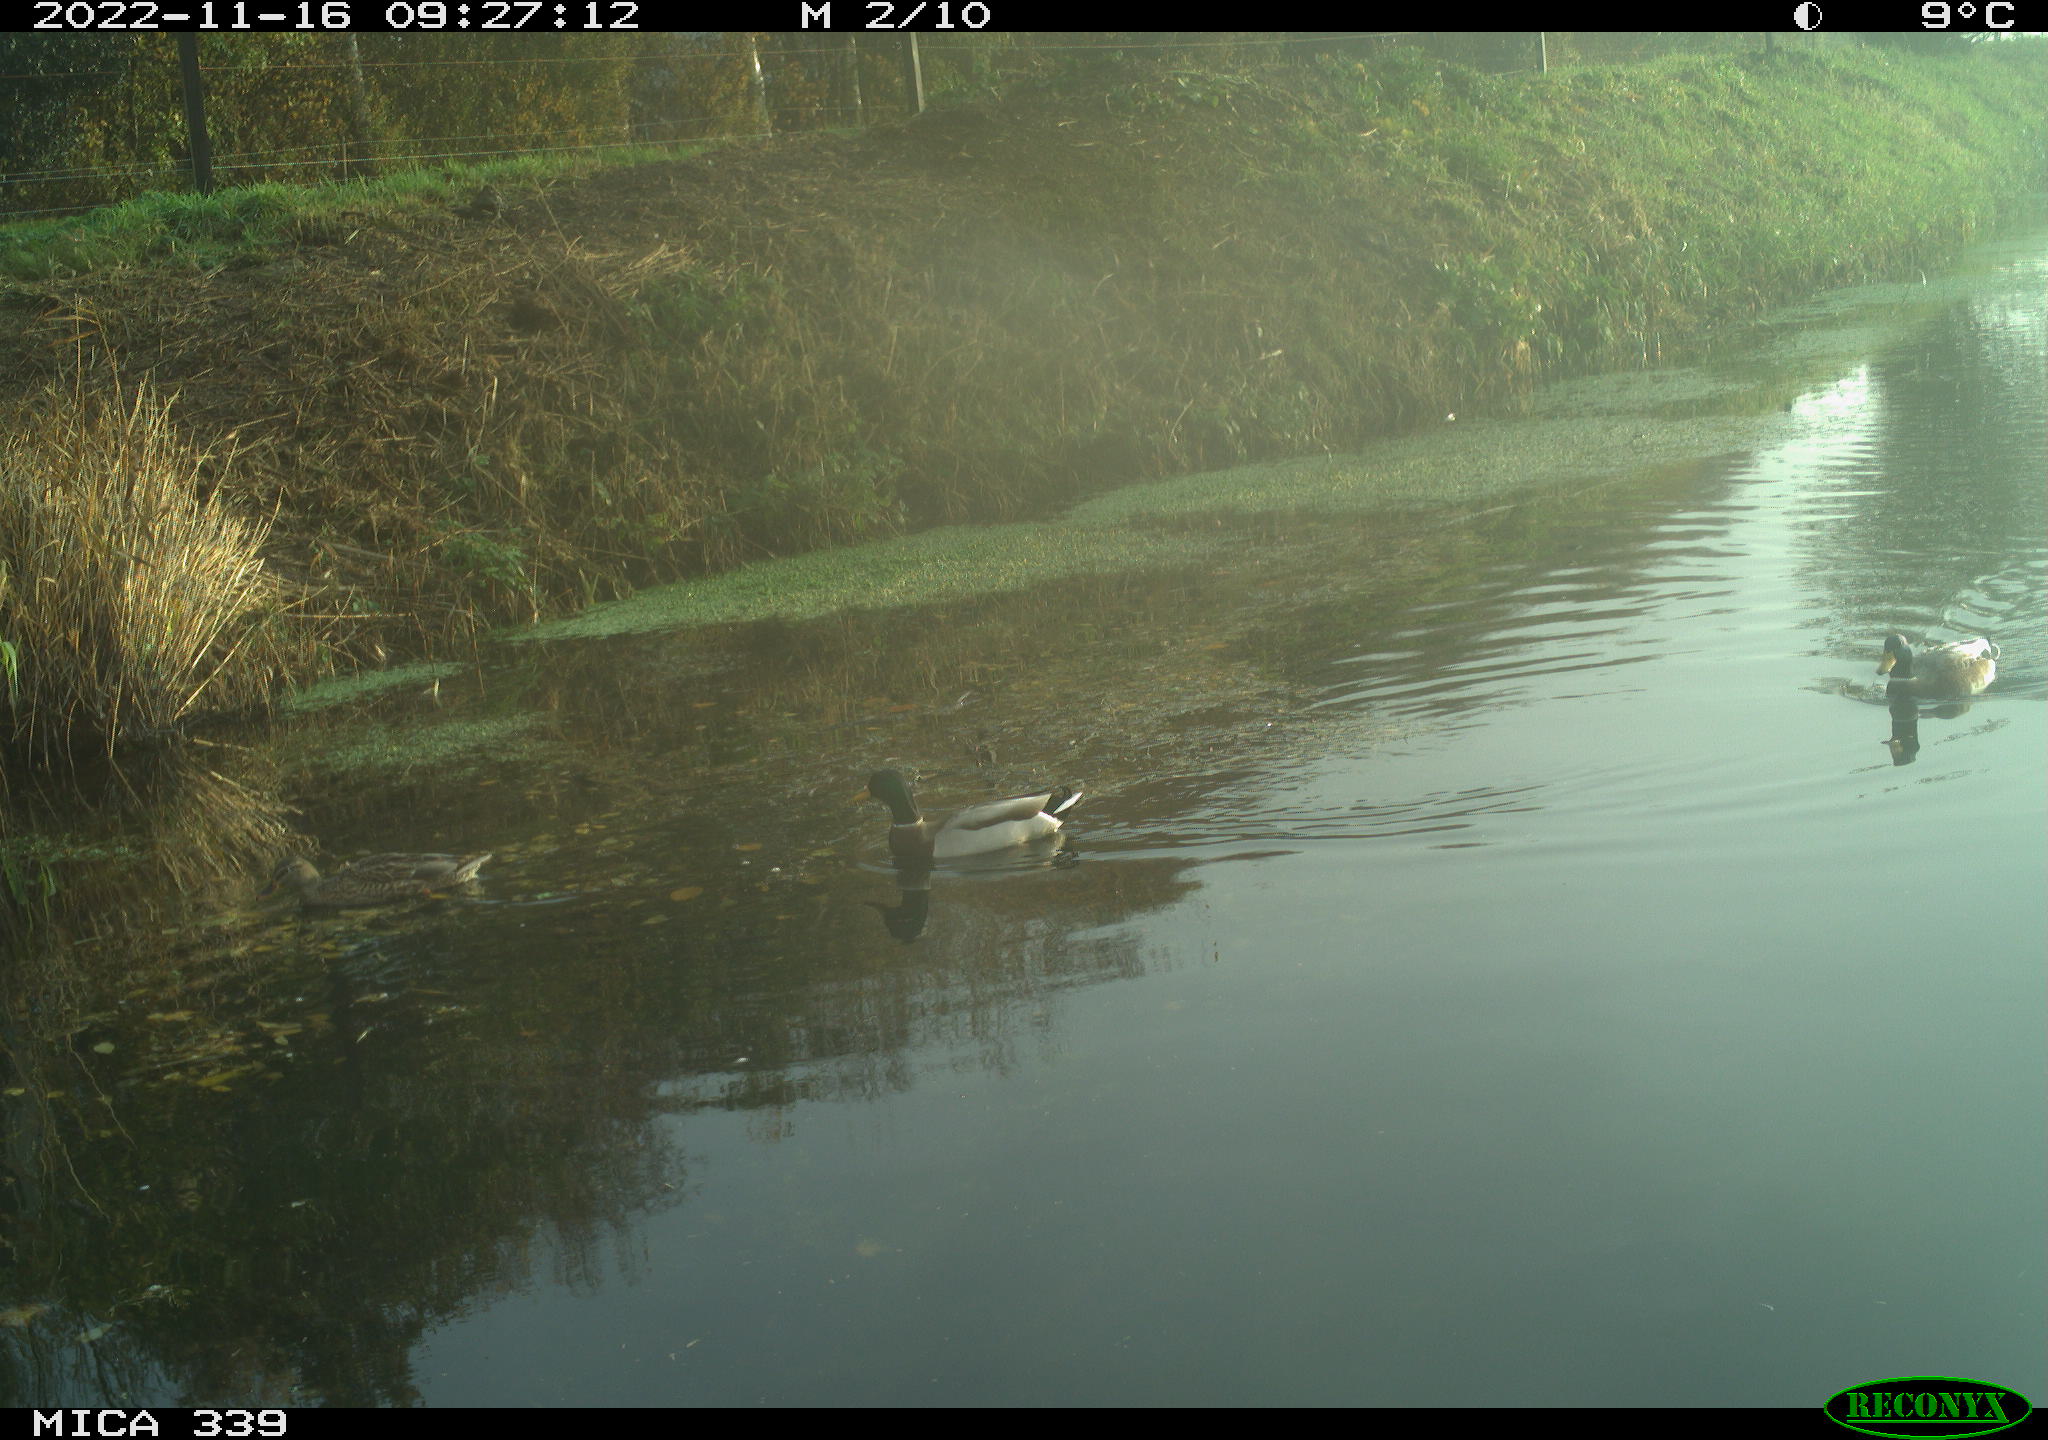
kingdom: Animalia
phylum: Chordata
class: Aves
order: Anseriformes
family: Anatidae
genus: Anas
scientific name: Anas platyrhynchos
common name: Mallard
